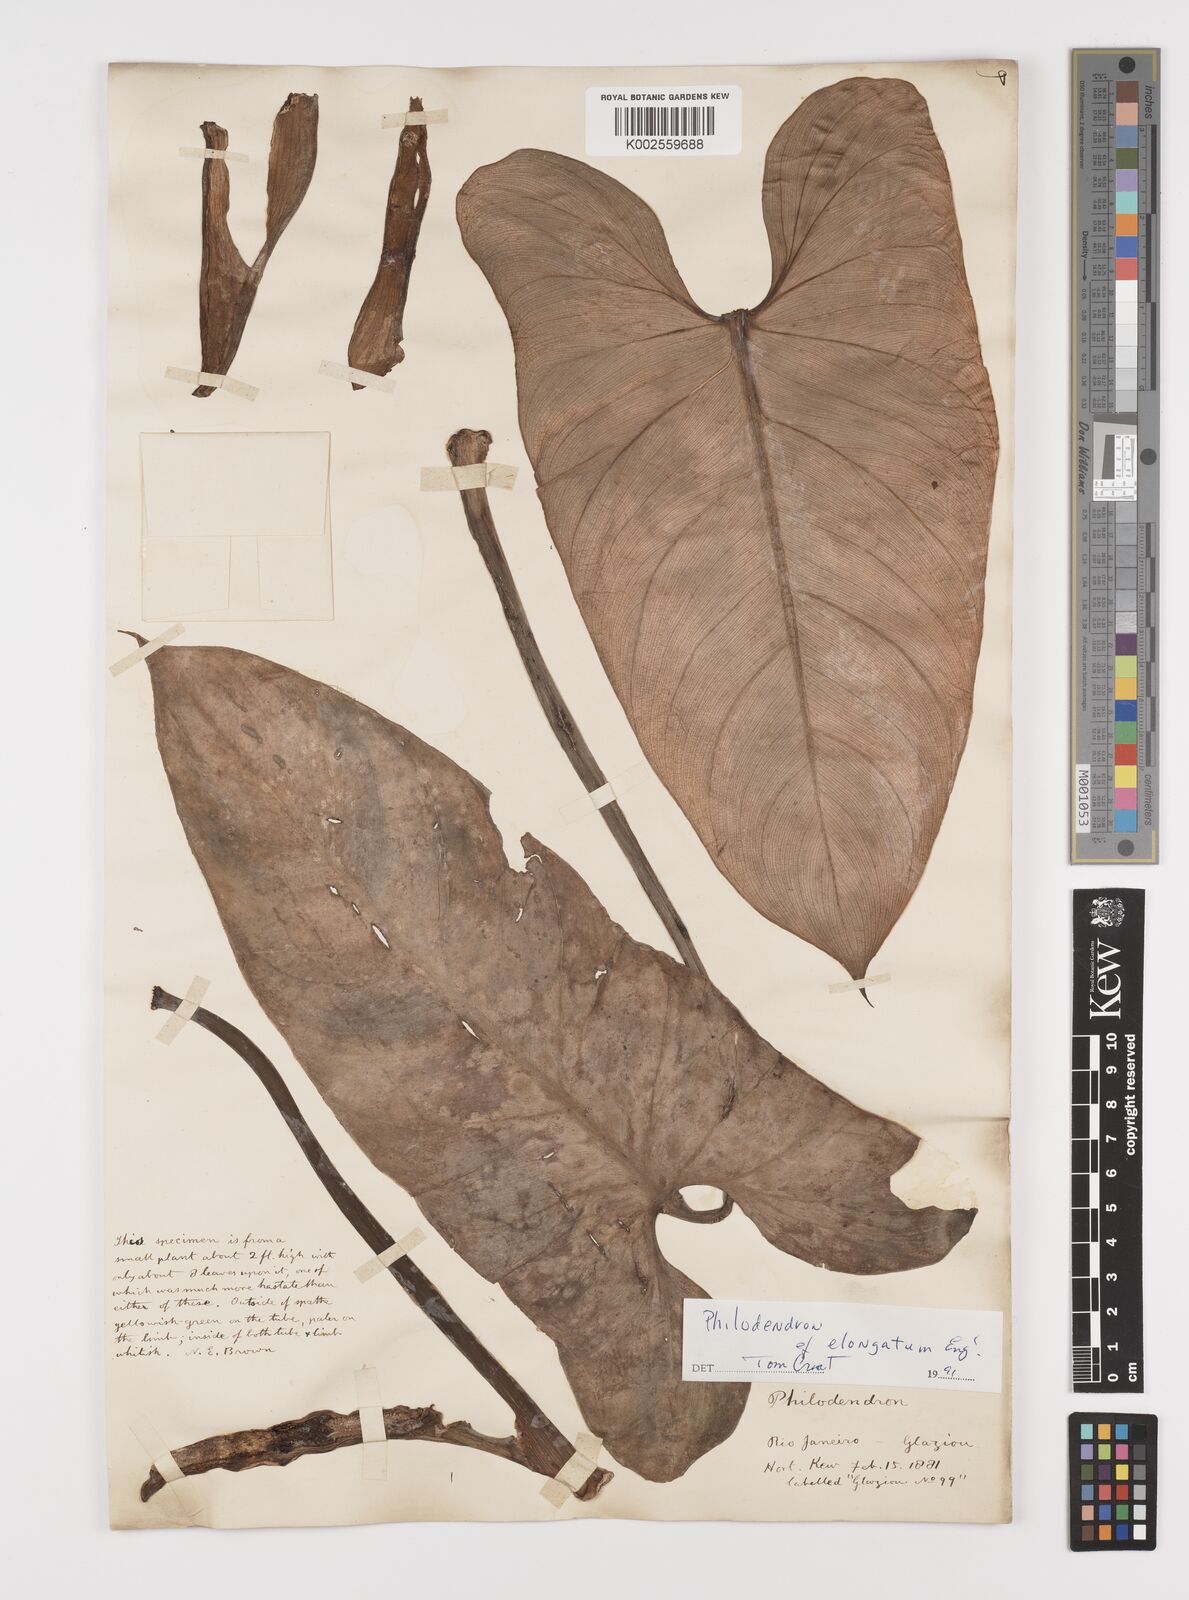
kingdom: Plantae
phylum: Tracheophyta
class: Liliopsida
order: Alismatales
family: Araceae
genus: Philodendron
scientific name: Philodendron hastatum
